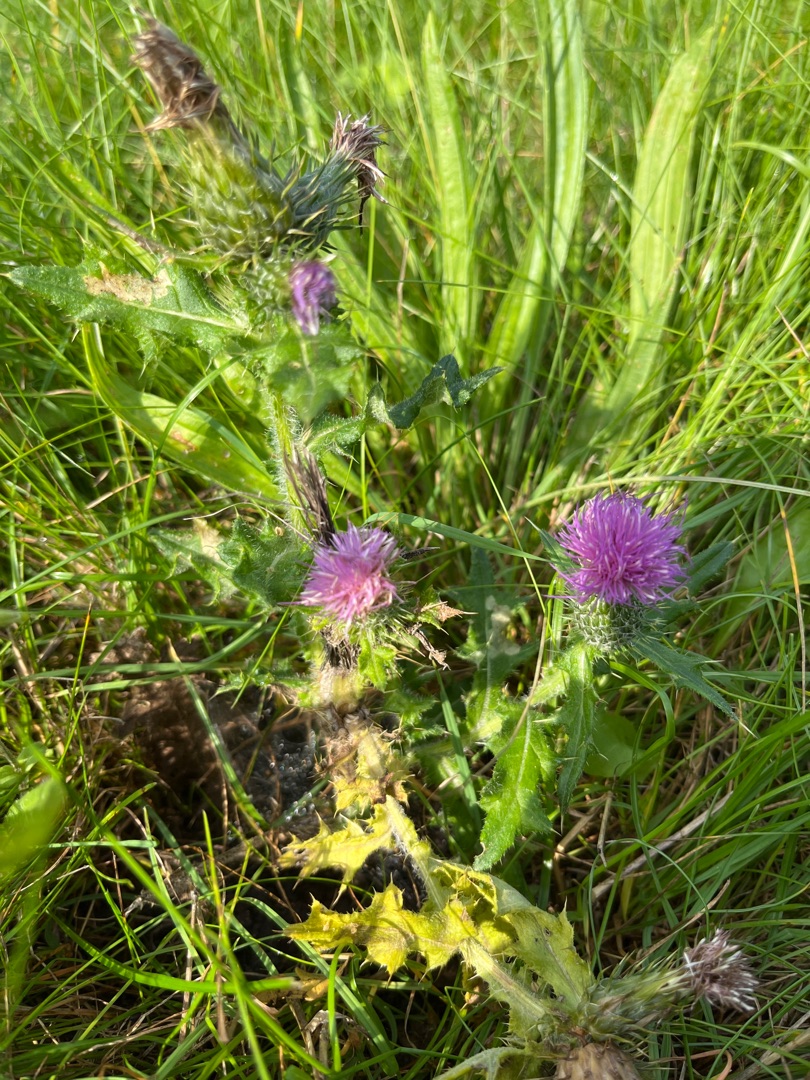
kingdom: Plantae
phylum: Tracheophyta
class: Magnoliopsida
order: Asterales
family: Asteraceae
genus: Cirsium
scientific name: Cirsium vulgare
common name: Horse-tidsel
